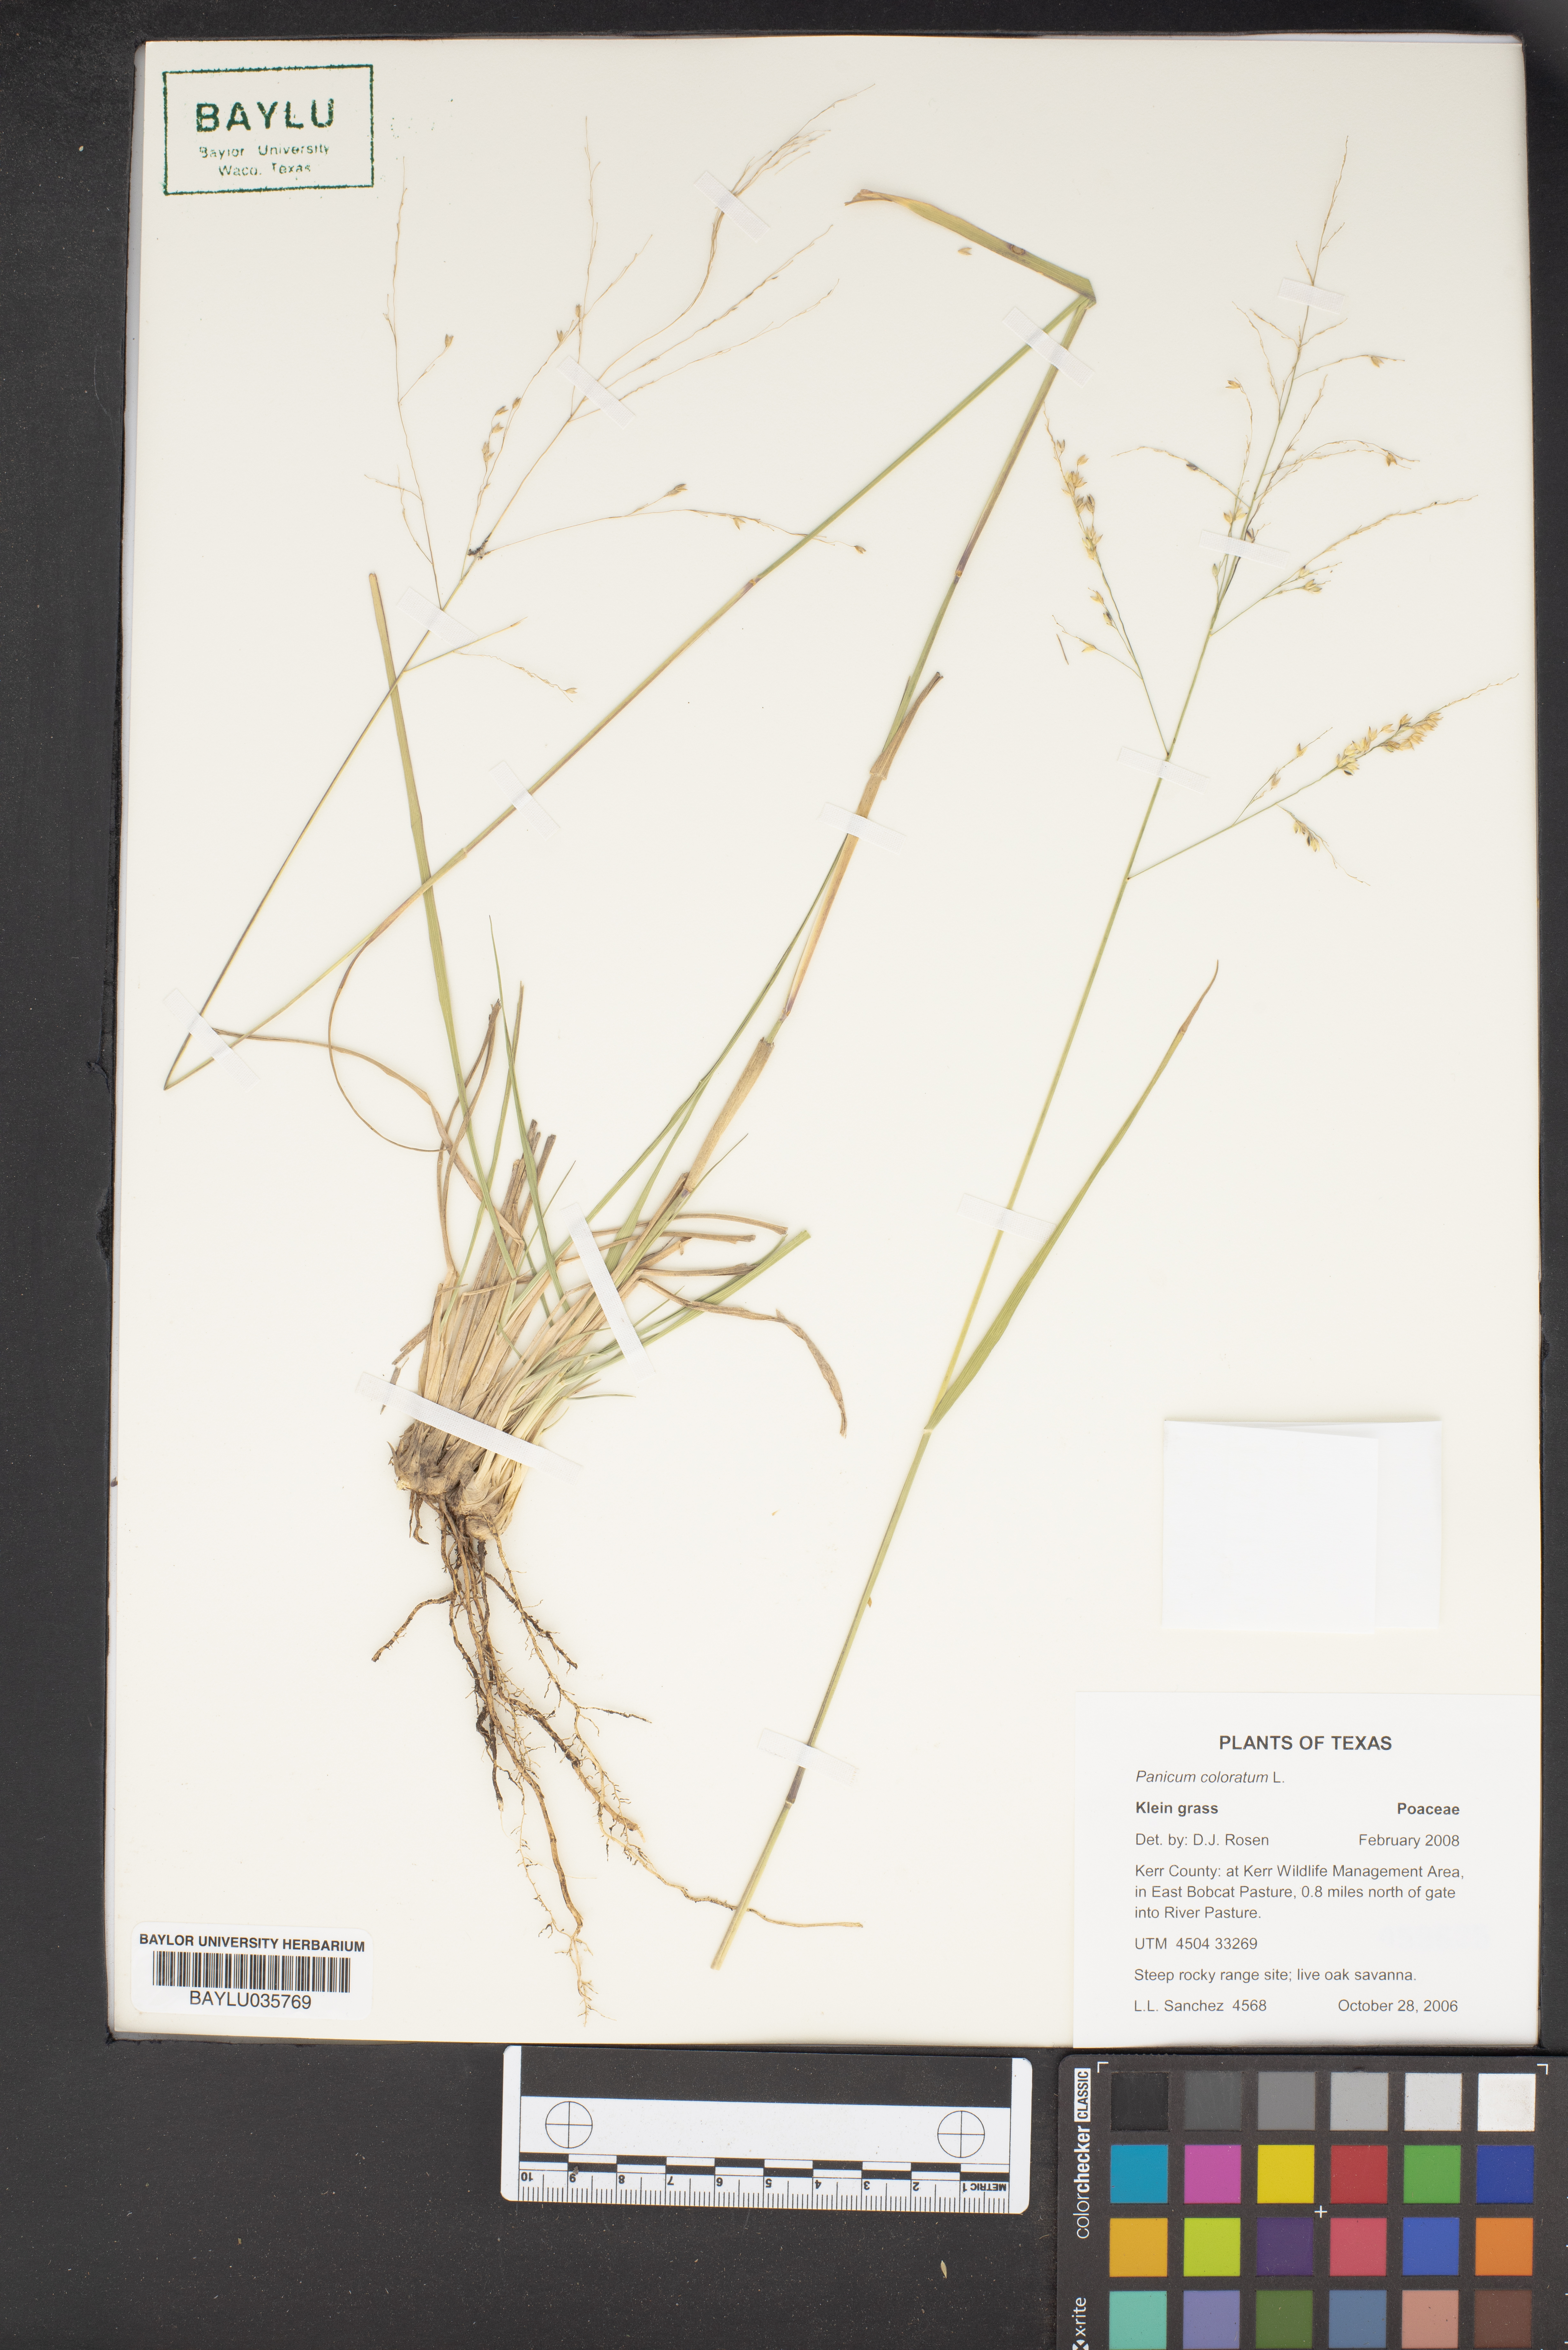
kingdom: Plantae
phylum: Tracheophyta
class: Liliopsida
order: Poales
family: Poaceae
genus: Panicum
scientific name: Panicum coloratum
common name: Kleingrass
